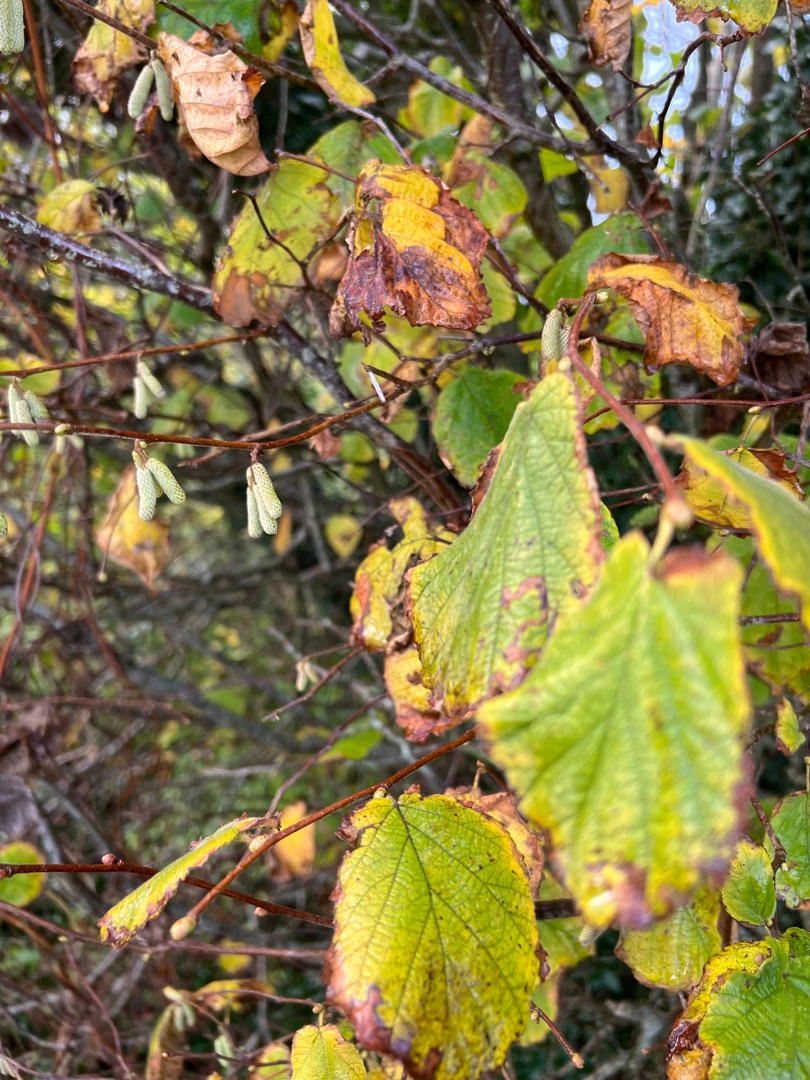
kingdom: Plantae
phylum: Tracheophyta
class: Magnoliopsida
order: Fagales
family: Betulaceae
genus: Corylus
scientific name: Corylus avellana
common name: Hassel
